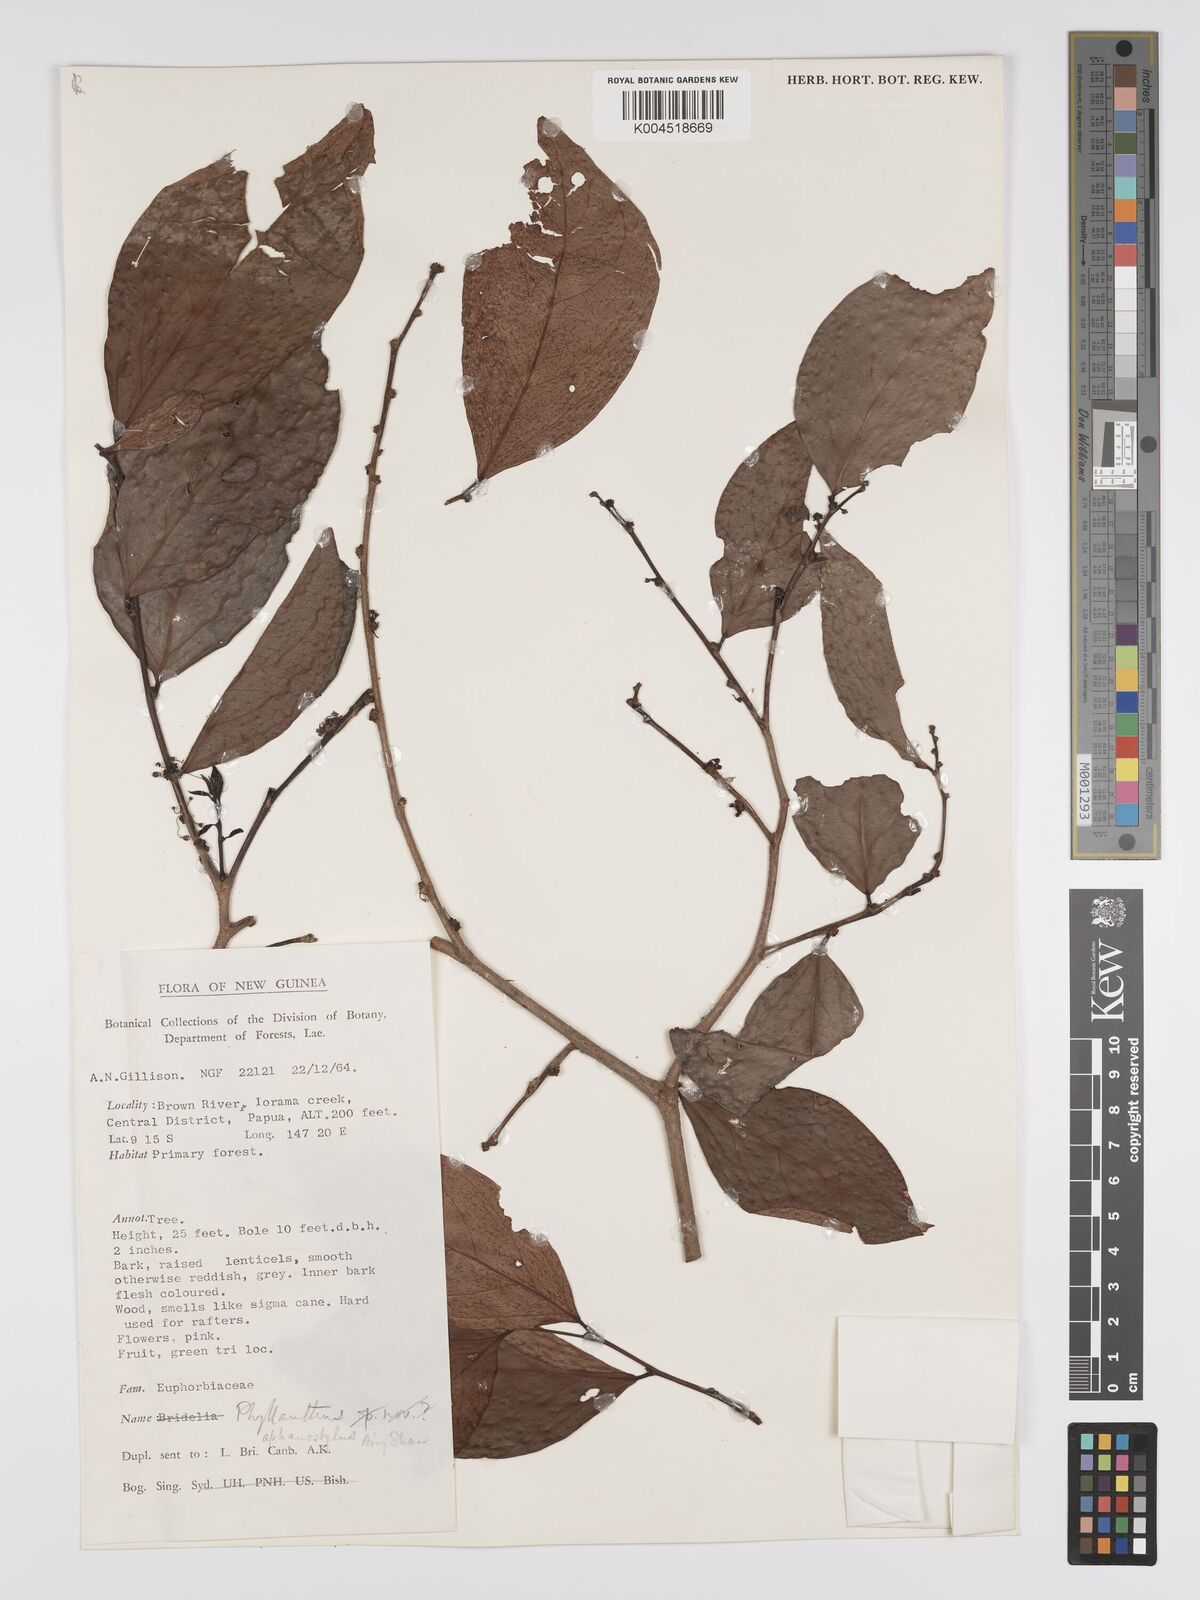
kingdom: Plantae
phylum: Tracheophyta
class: Magnoliopsida
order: Malpighiales
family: Phyllanthaceae
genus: Phyllanthus
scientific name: Phyllanthus aphanostylus
